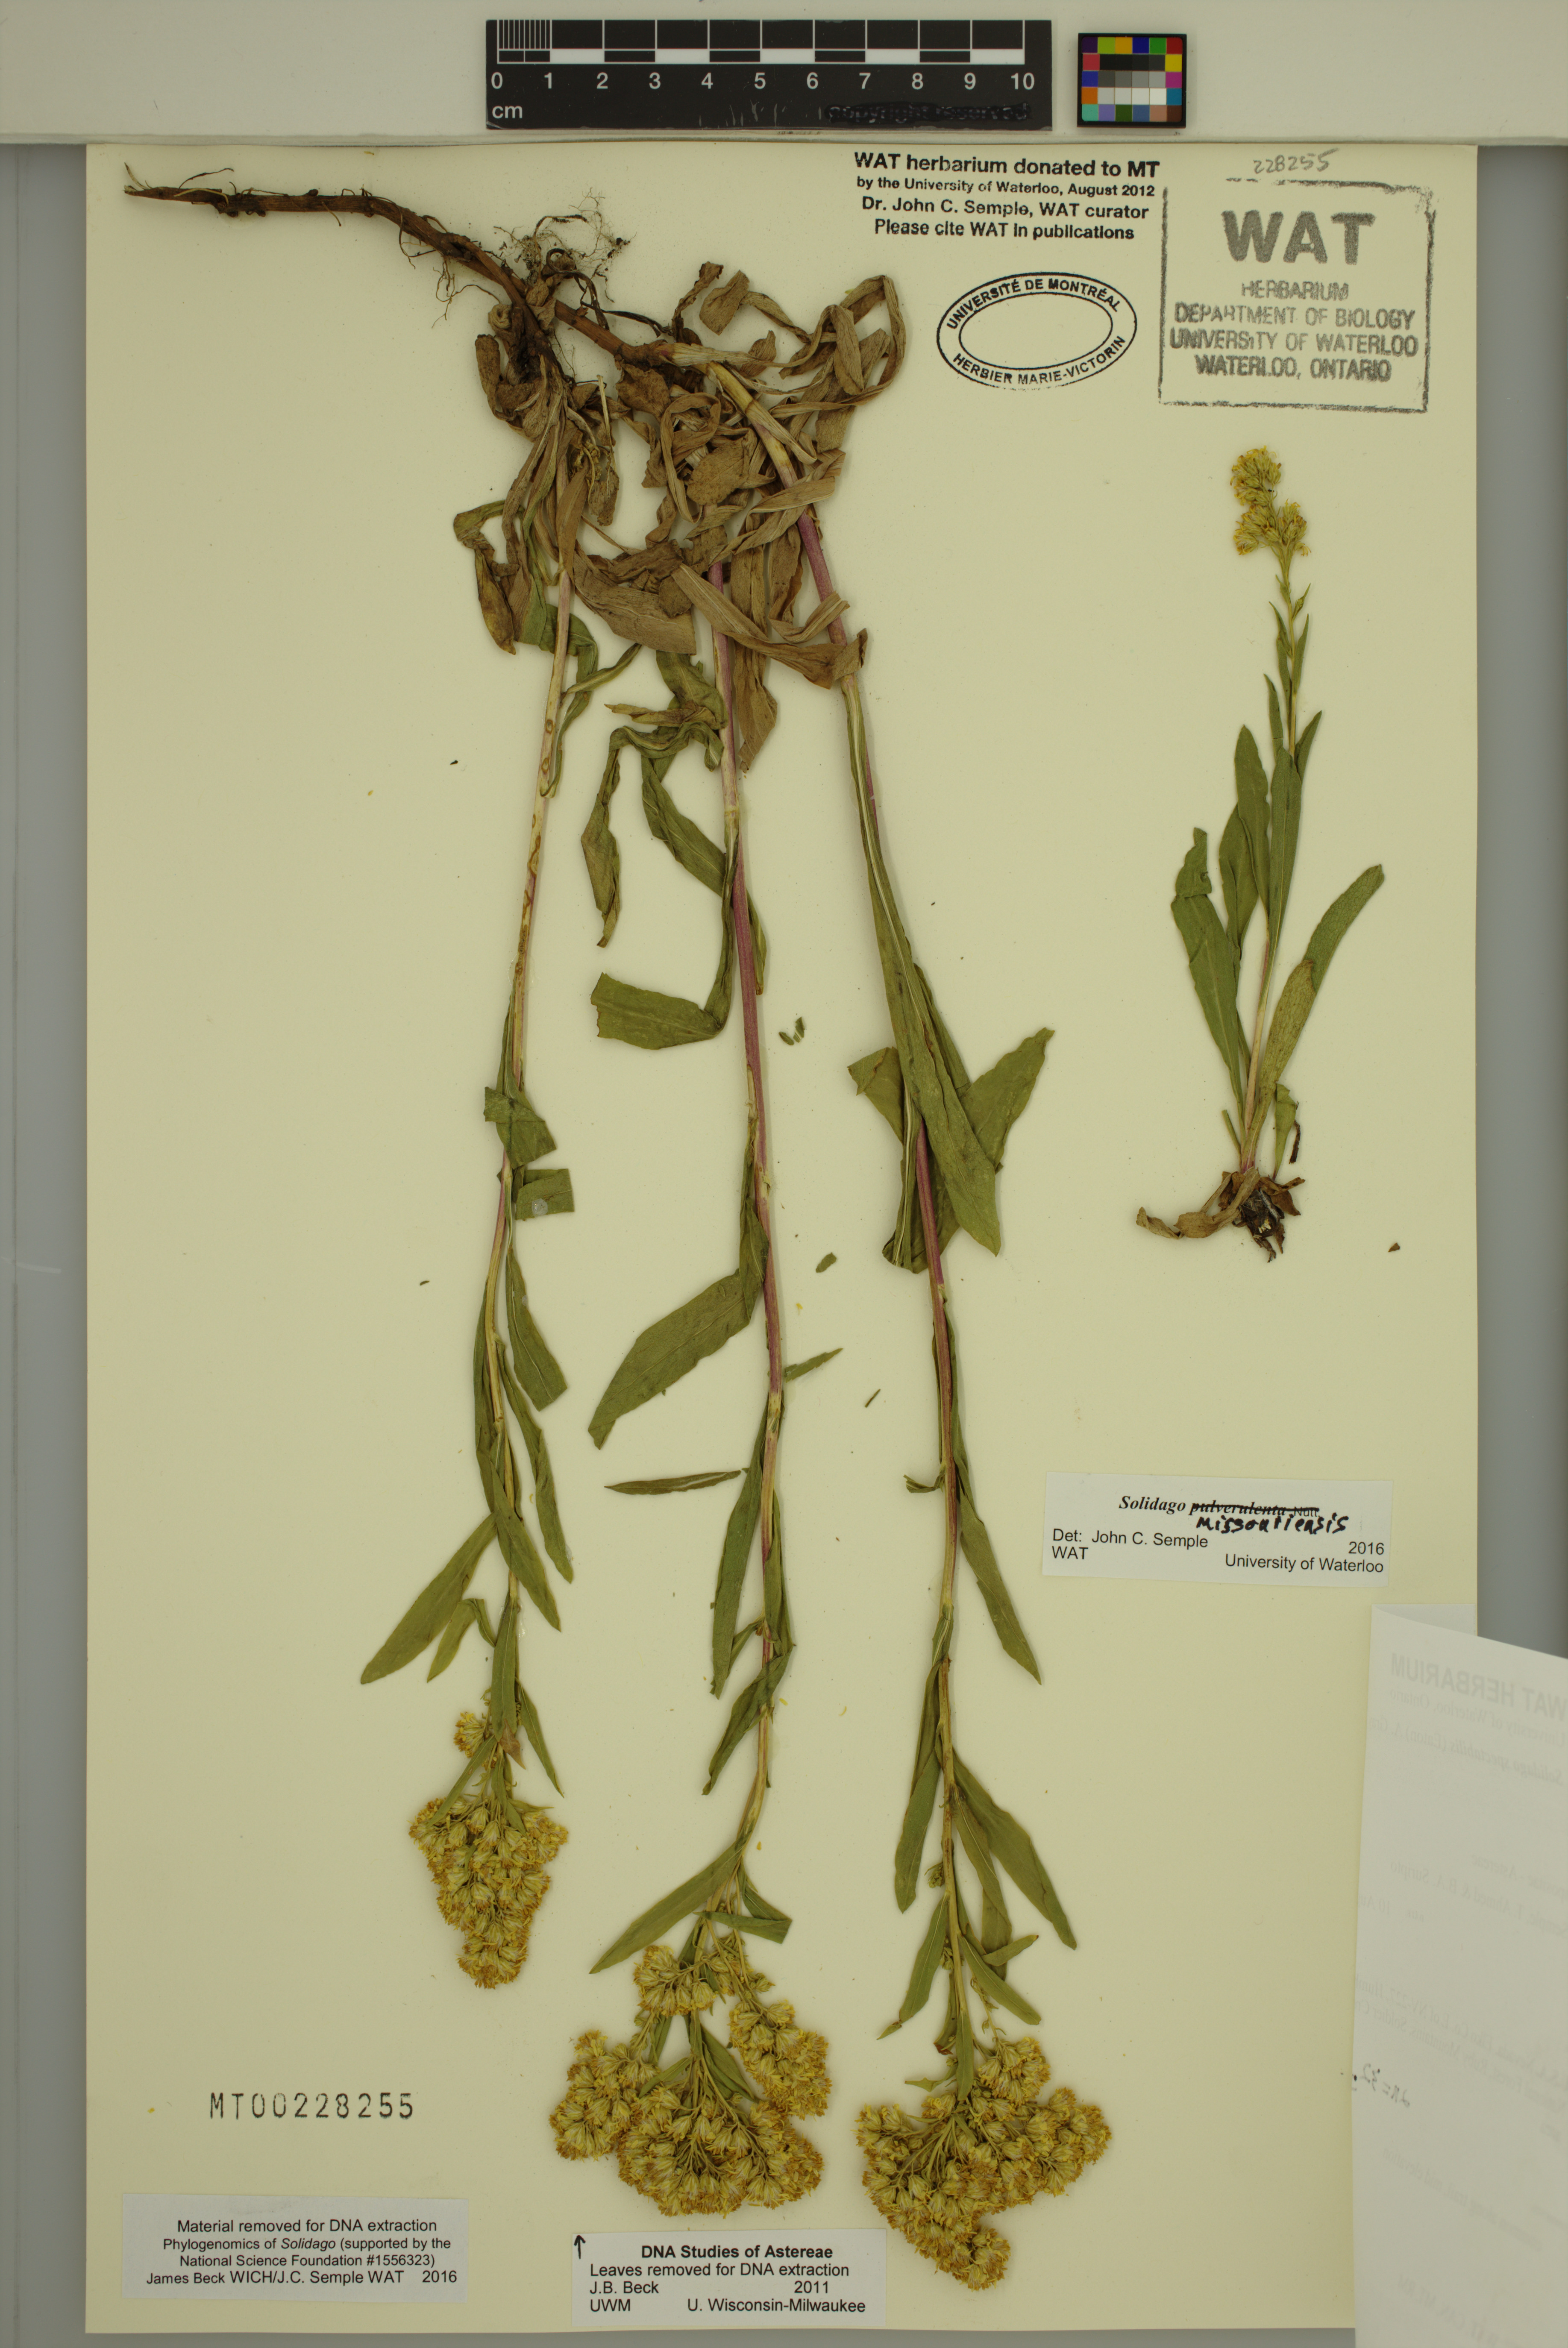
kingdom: Plantae
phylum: Tracheophyta
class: Magnoliopsida
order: Asterales
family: Asteraceae
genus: Solidago
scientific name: Solidago missouriensis
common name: Prairie goldenrod
